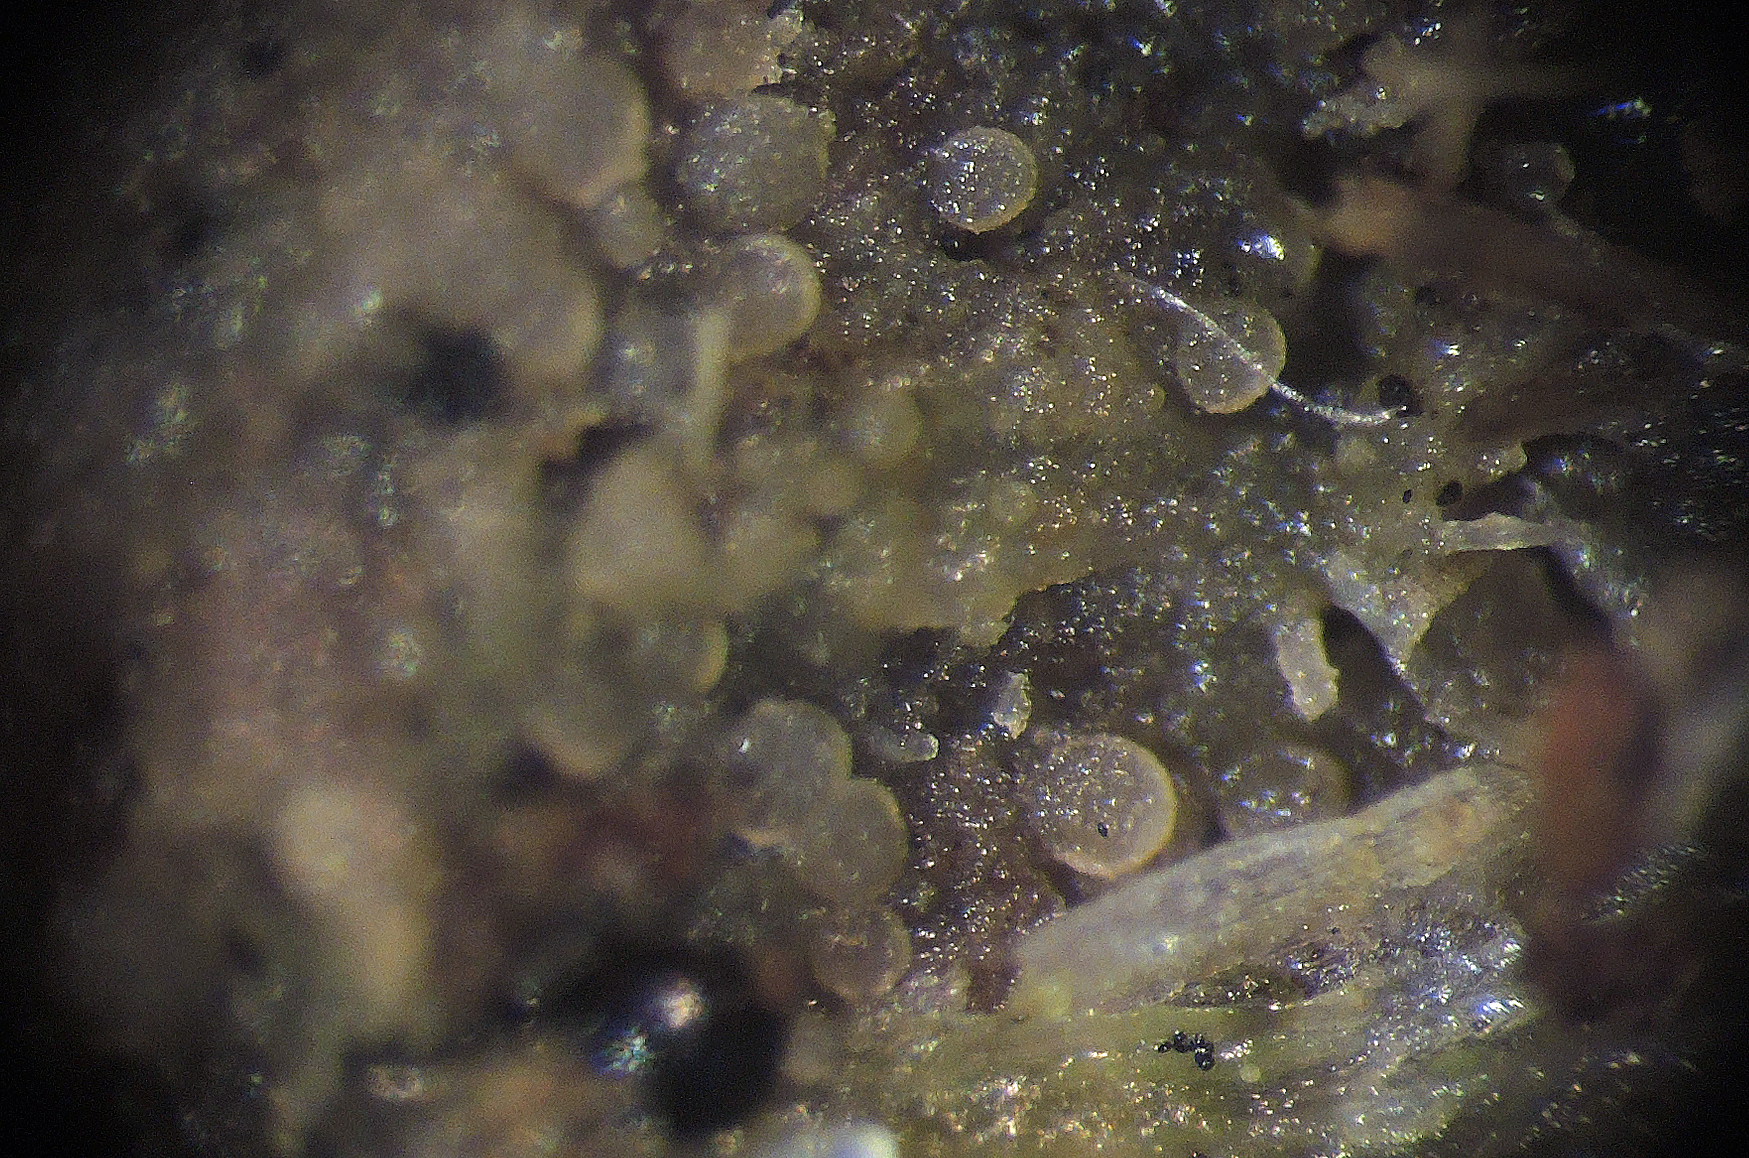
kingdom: Fungi
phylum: Ascomycota
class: Pezizomycetes
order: Pezizales
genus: Coprotus
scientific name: Coprotus granuliformis
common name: ballonsækket småbæger
